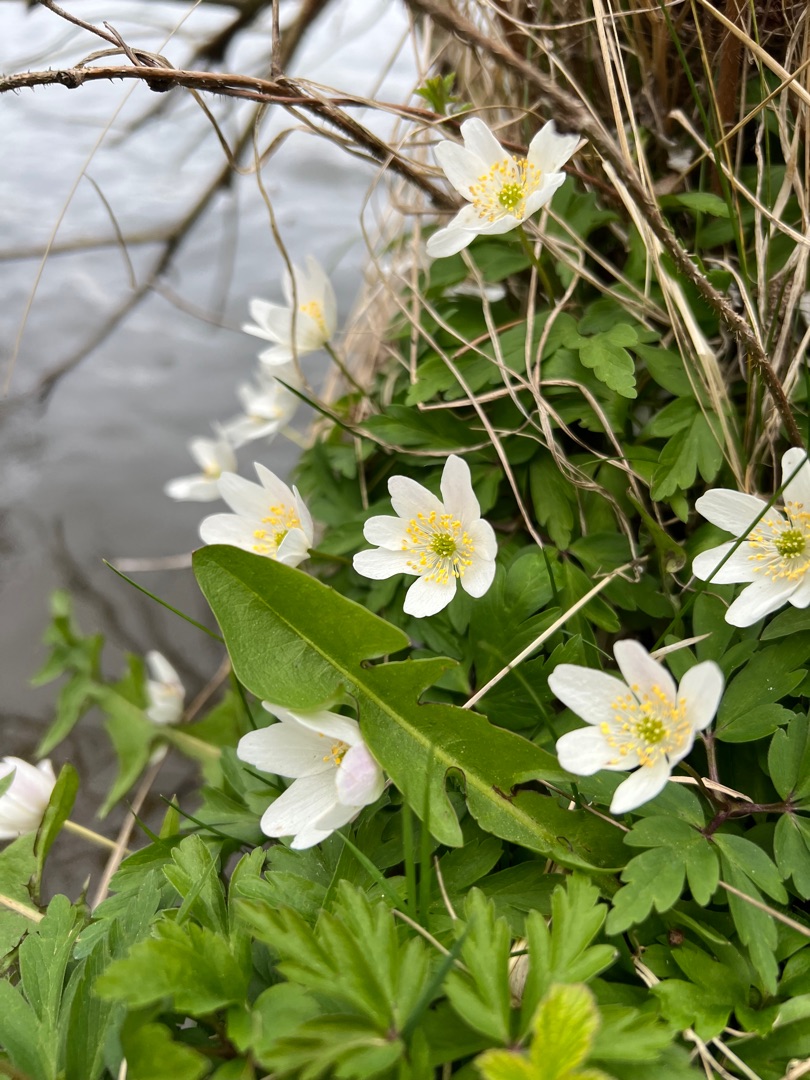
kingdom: Plantae
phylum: Tracheophyta
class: Magnoliopsida
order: Ranunculales
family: Ranunculaceae
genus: Anemone
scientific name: Anemone nemorosa
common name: Hvid anemone
